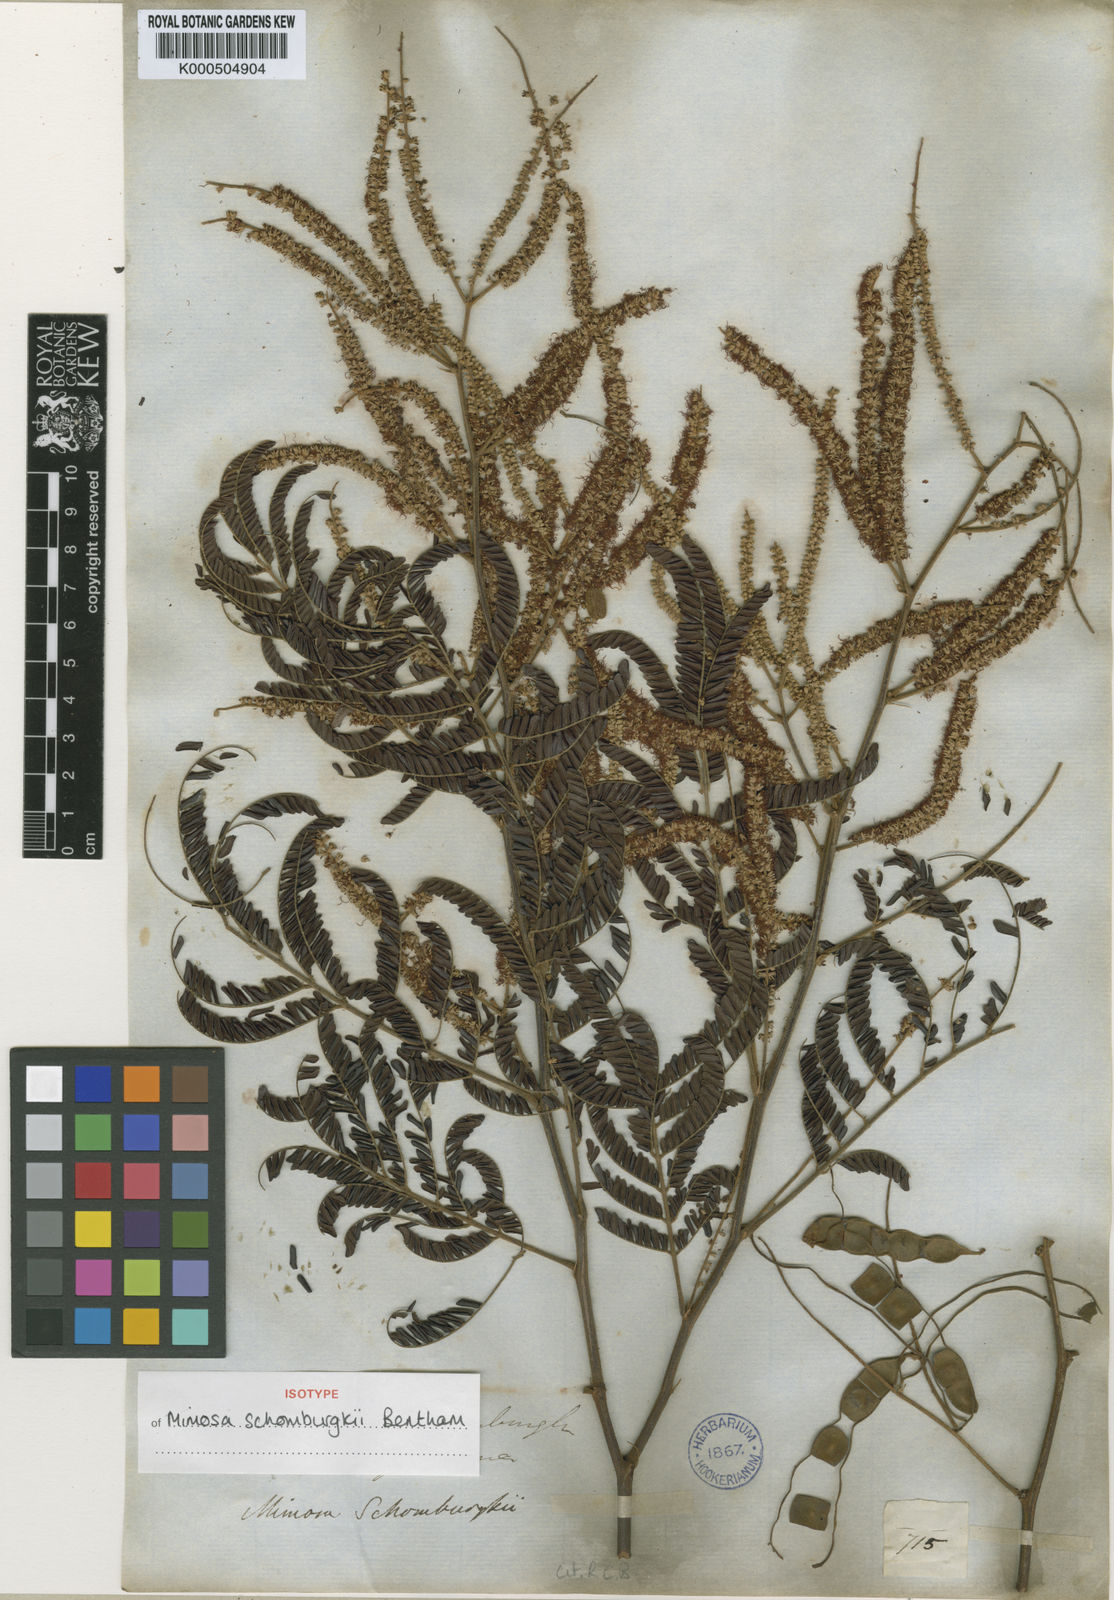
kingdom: Plantae
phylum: Tracheophyta
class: Magnoliopsida
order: Fabales
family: Fabaceae
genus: Mimosa
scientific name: Mimosa schomburgkii
